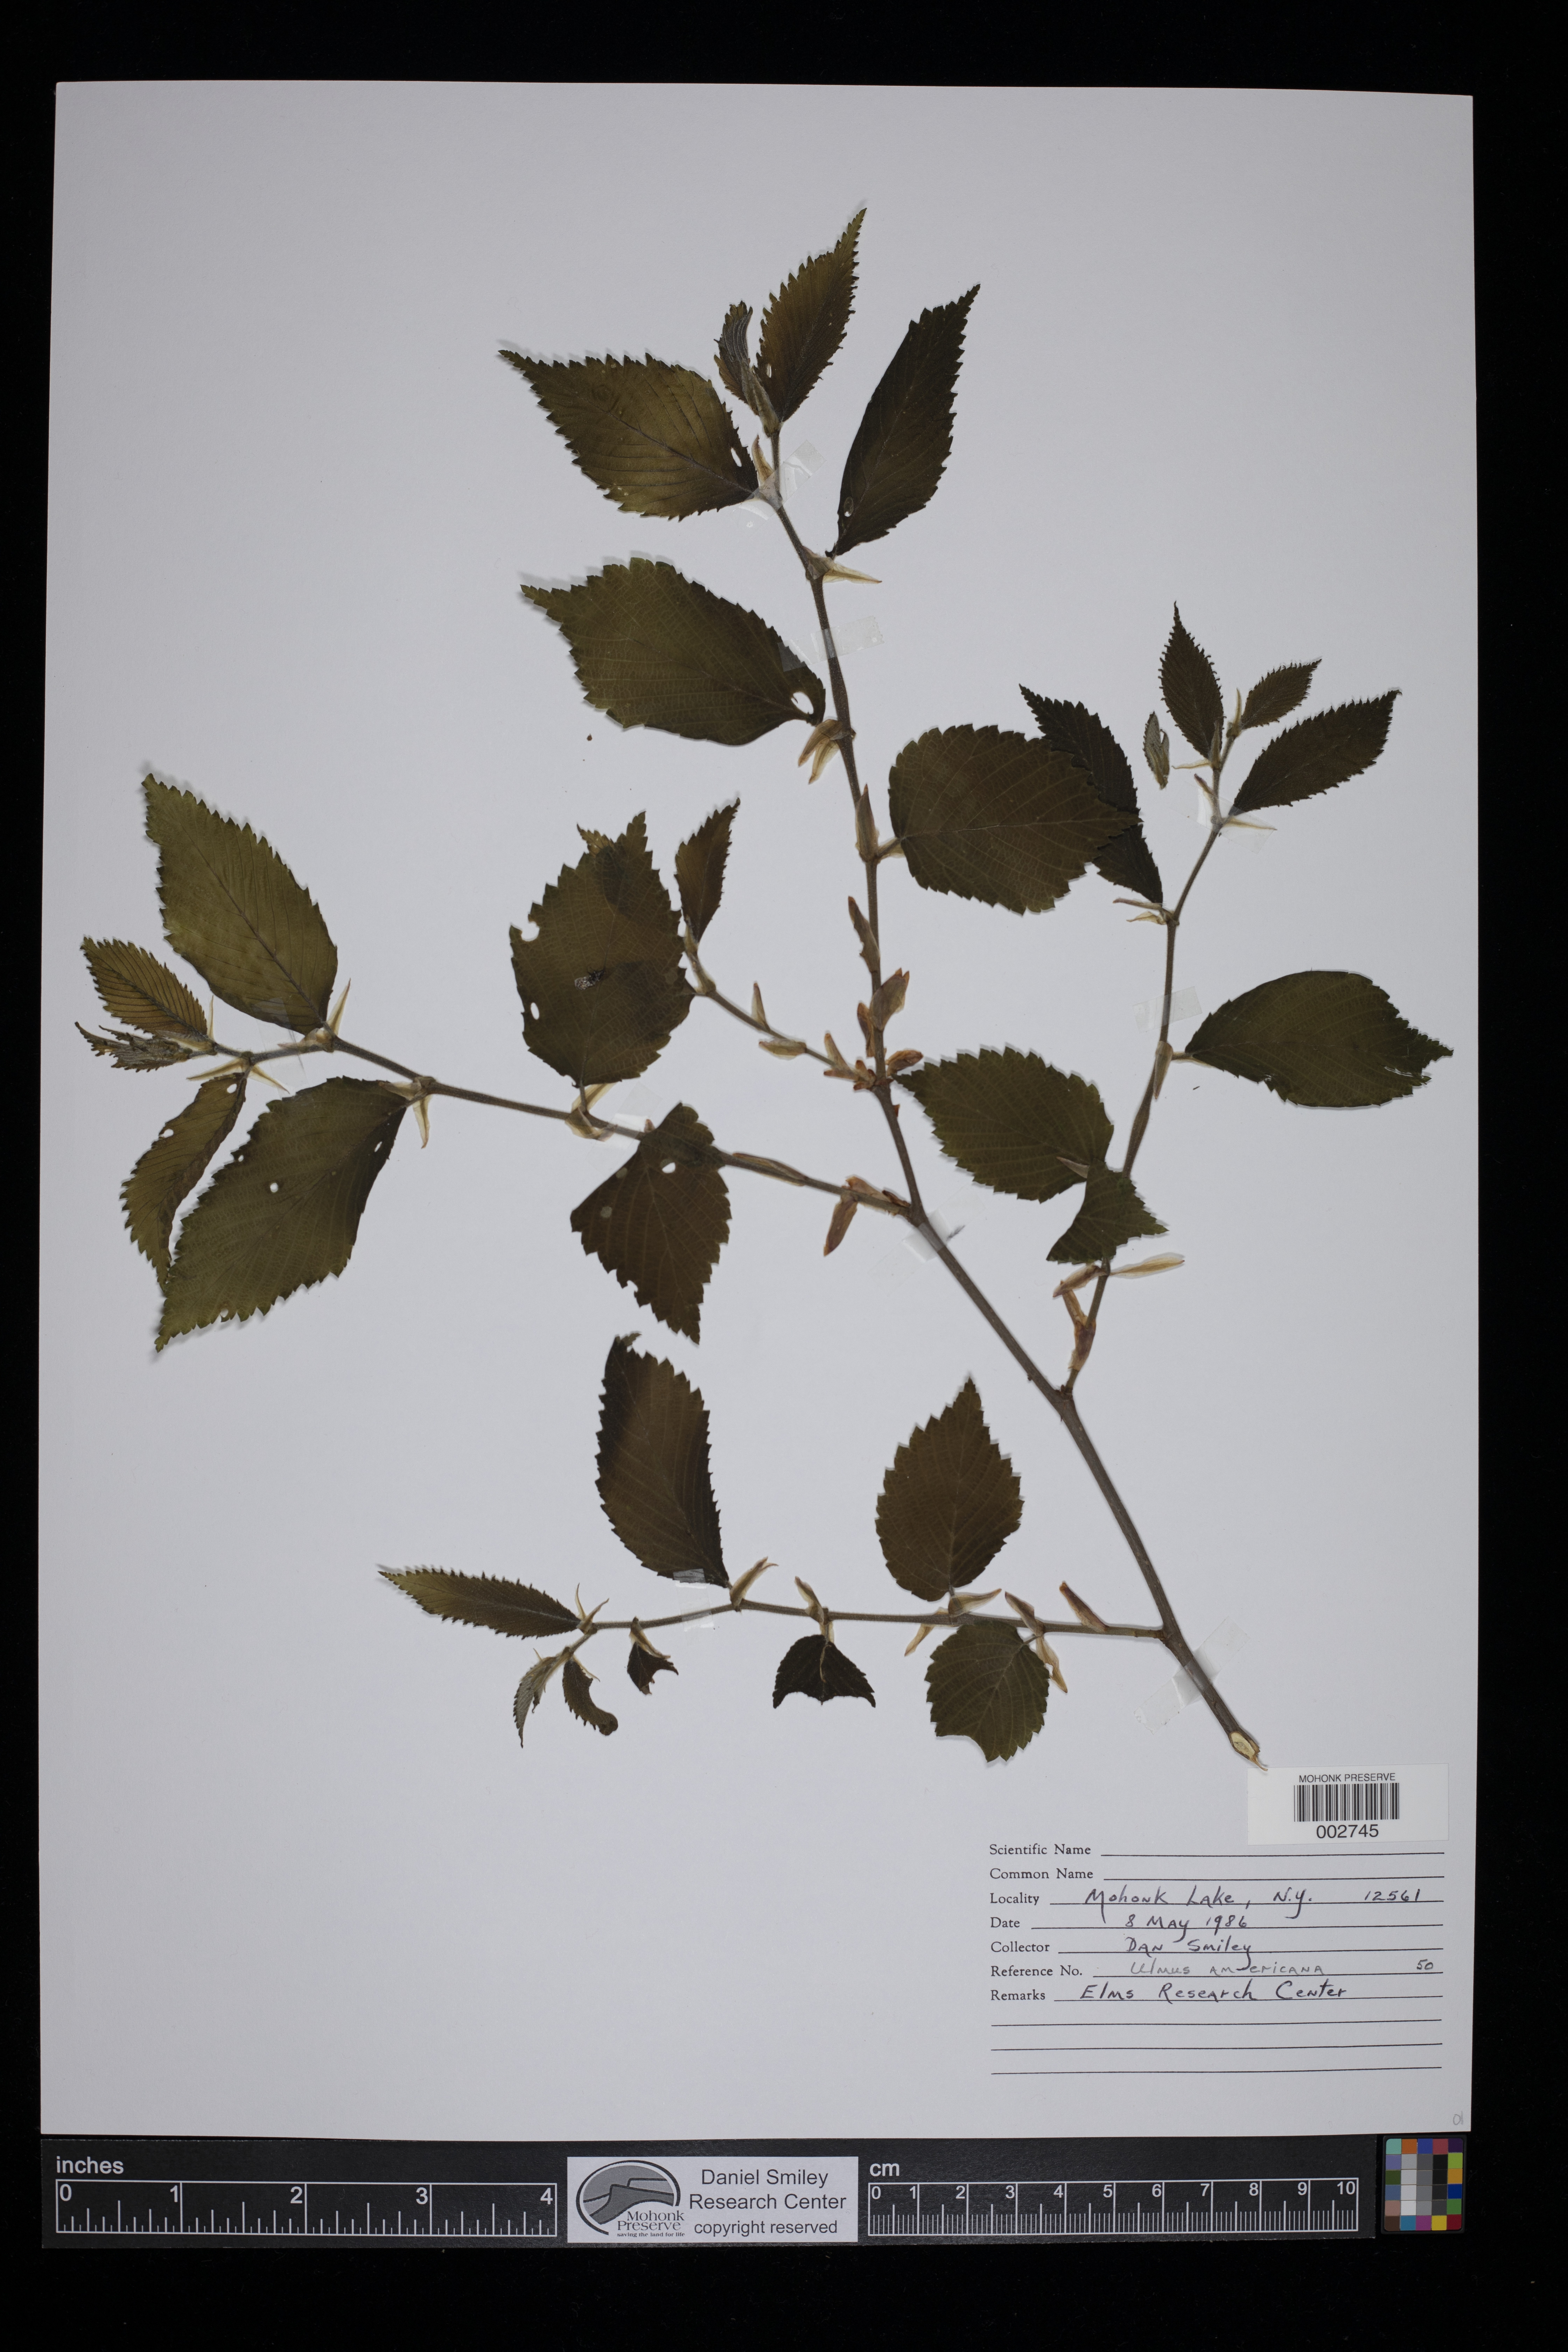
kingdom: Plantae
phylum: Tracheophyta
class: Magnoliopsida
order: Rosales
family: Ulmaceae
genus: Ulmus
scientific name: Ulmus americana
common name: American elm
